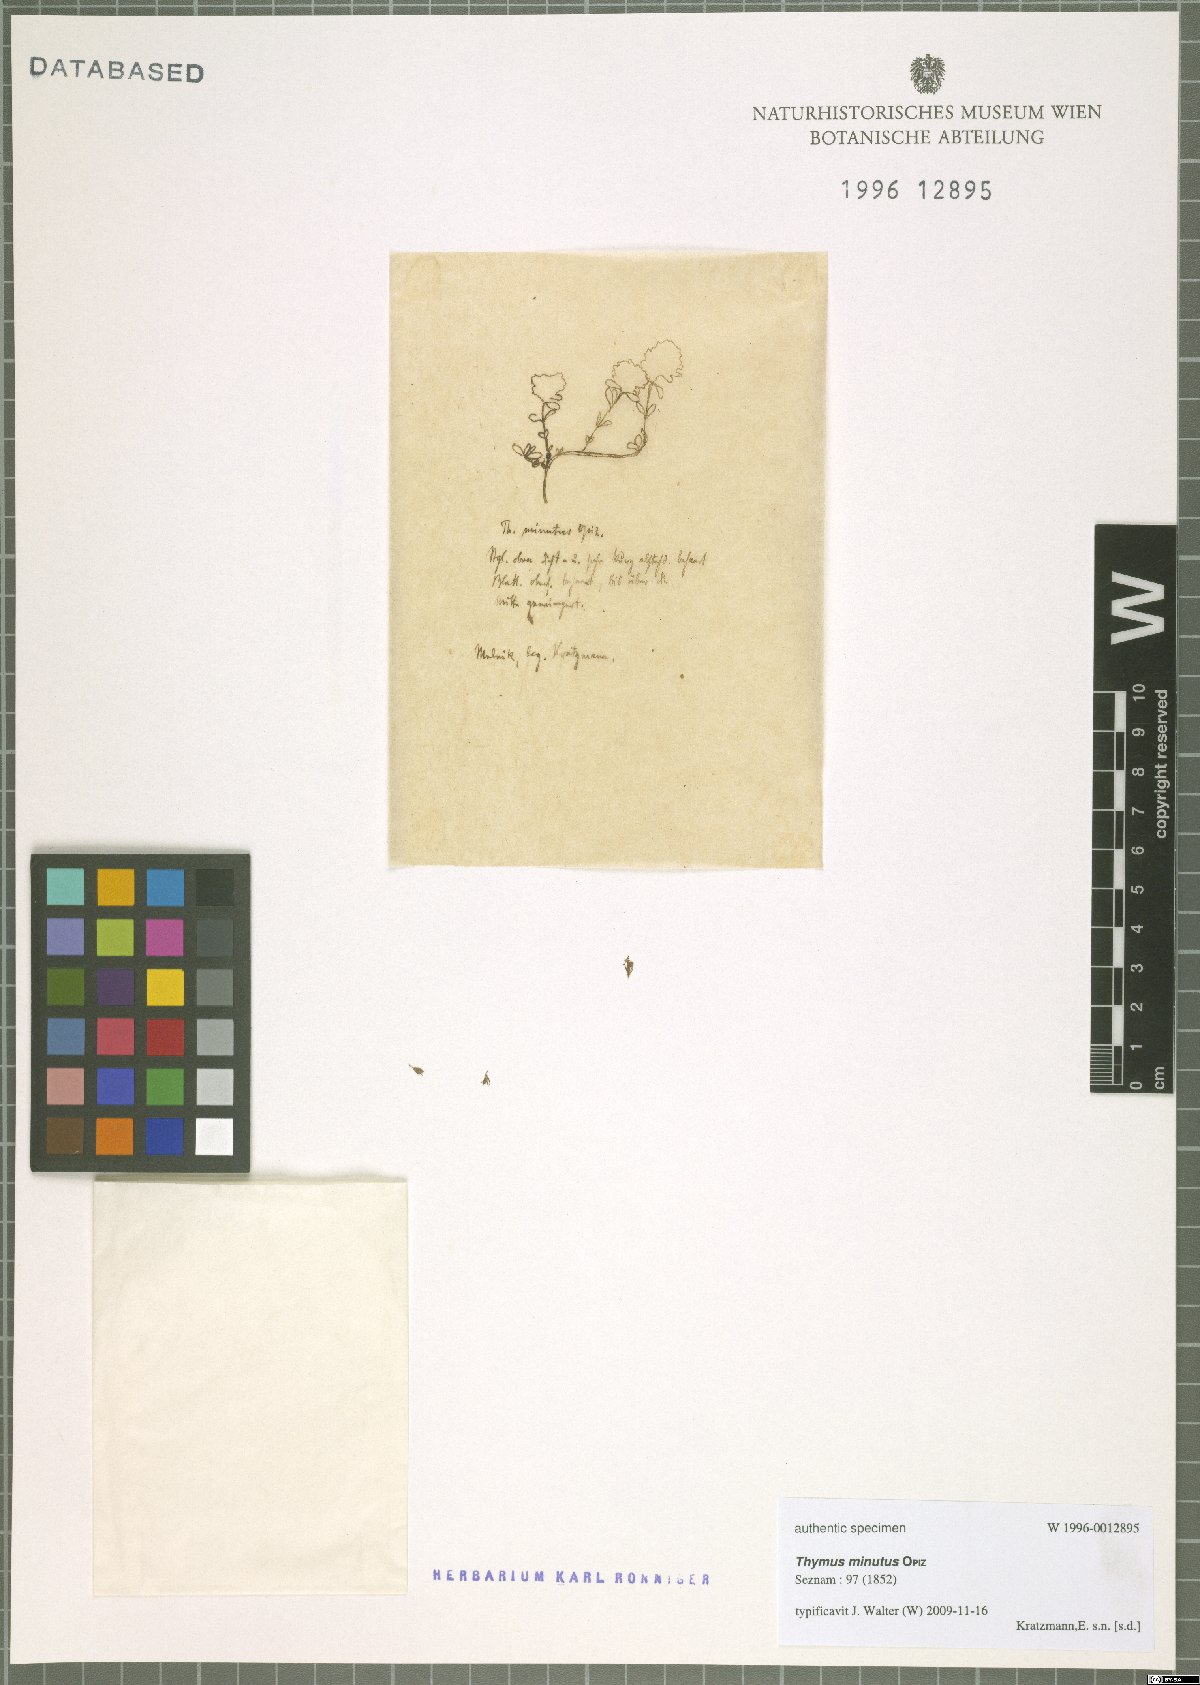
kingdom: Plantae
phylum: Tracheophyta
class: Magnoliopsida
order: Lamiales
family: Lamiaceae
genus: Thymus
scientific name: Thymus serpyllum
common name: Breckland thyme
